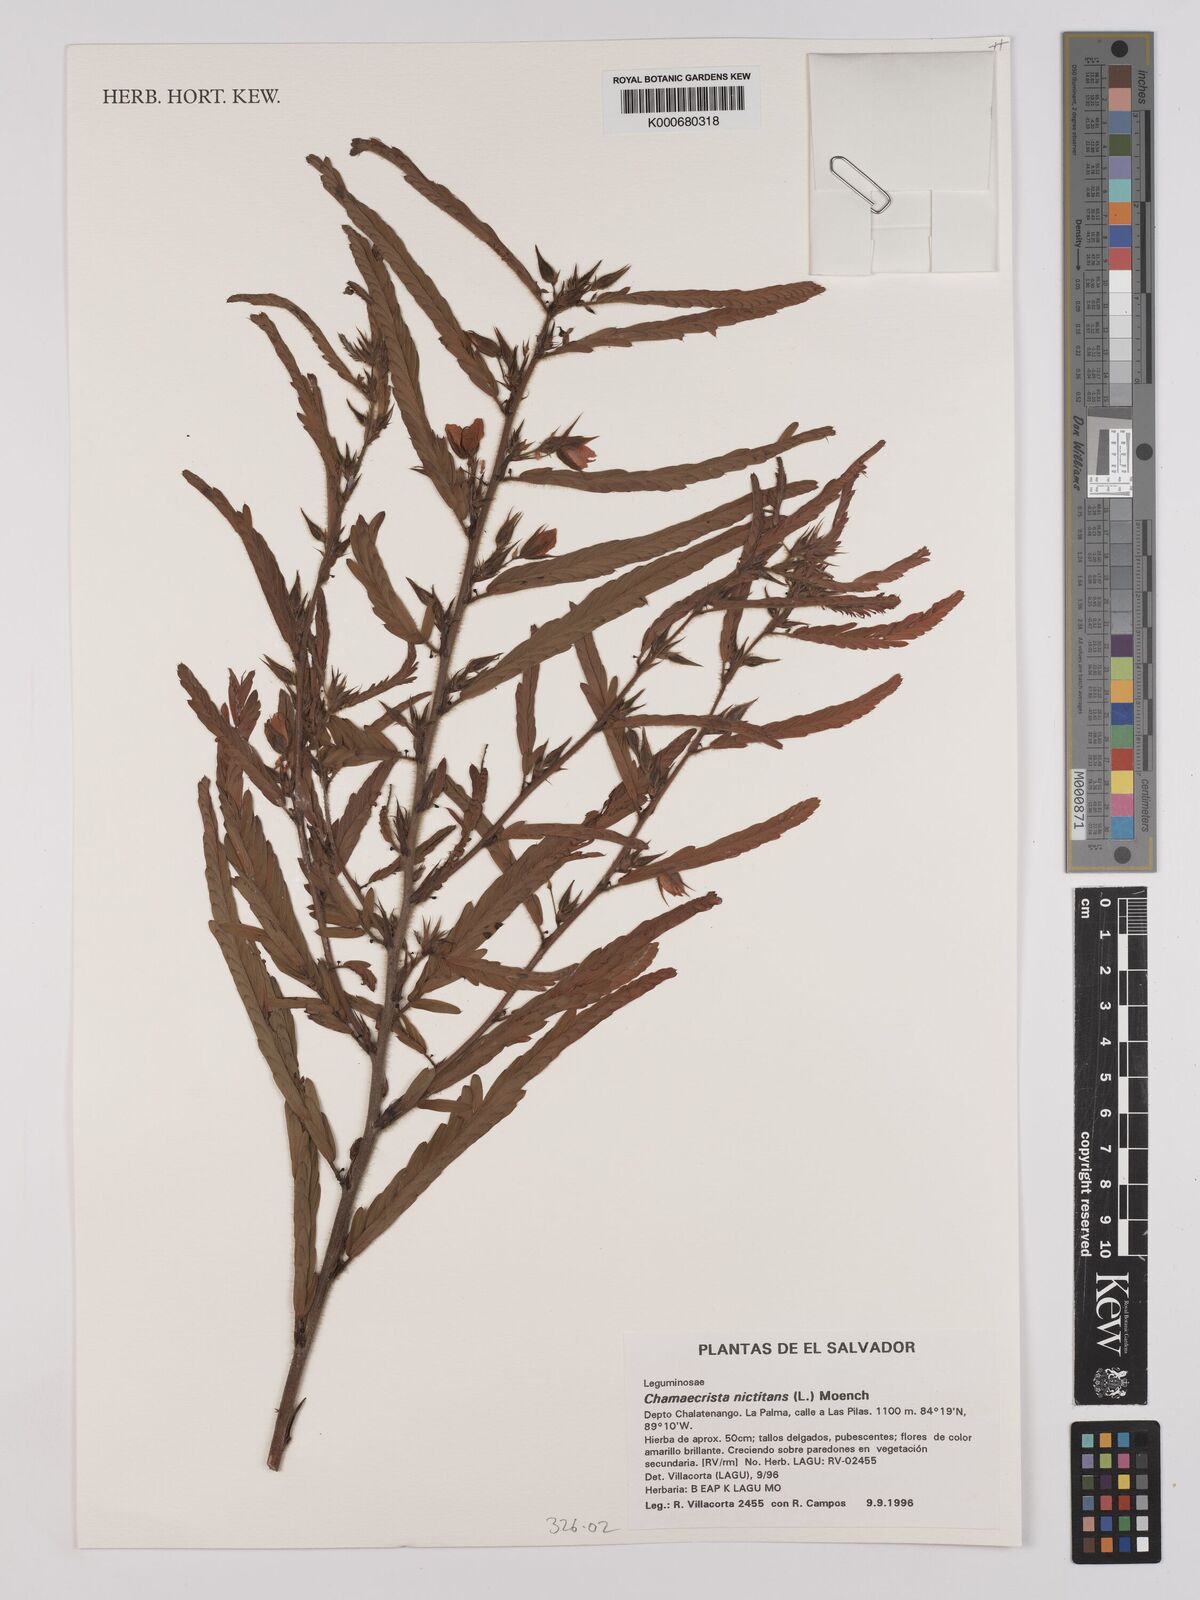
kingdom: Plantae
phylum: Tracheophyta
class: Magnoliopsida
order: Fabales
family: Fabaceae
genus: Chamaecrista
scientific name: Chamaecrista nictitans
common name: Sensitive cassia
